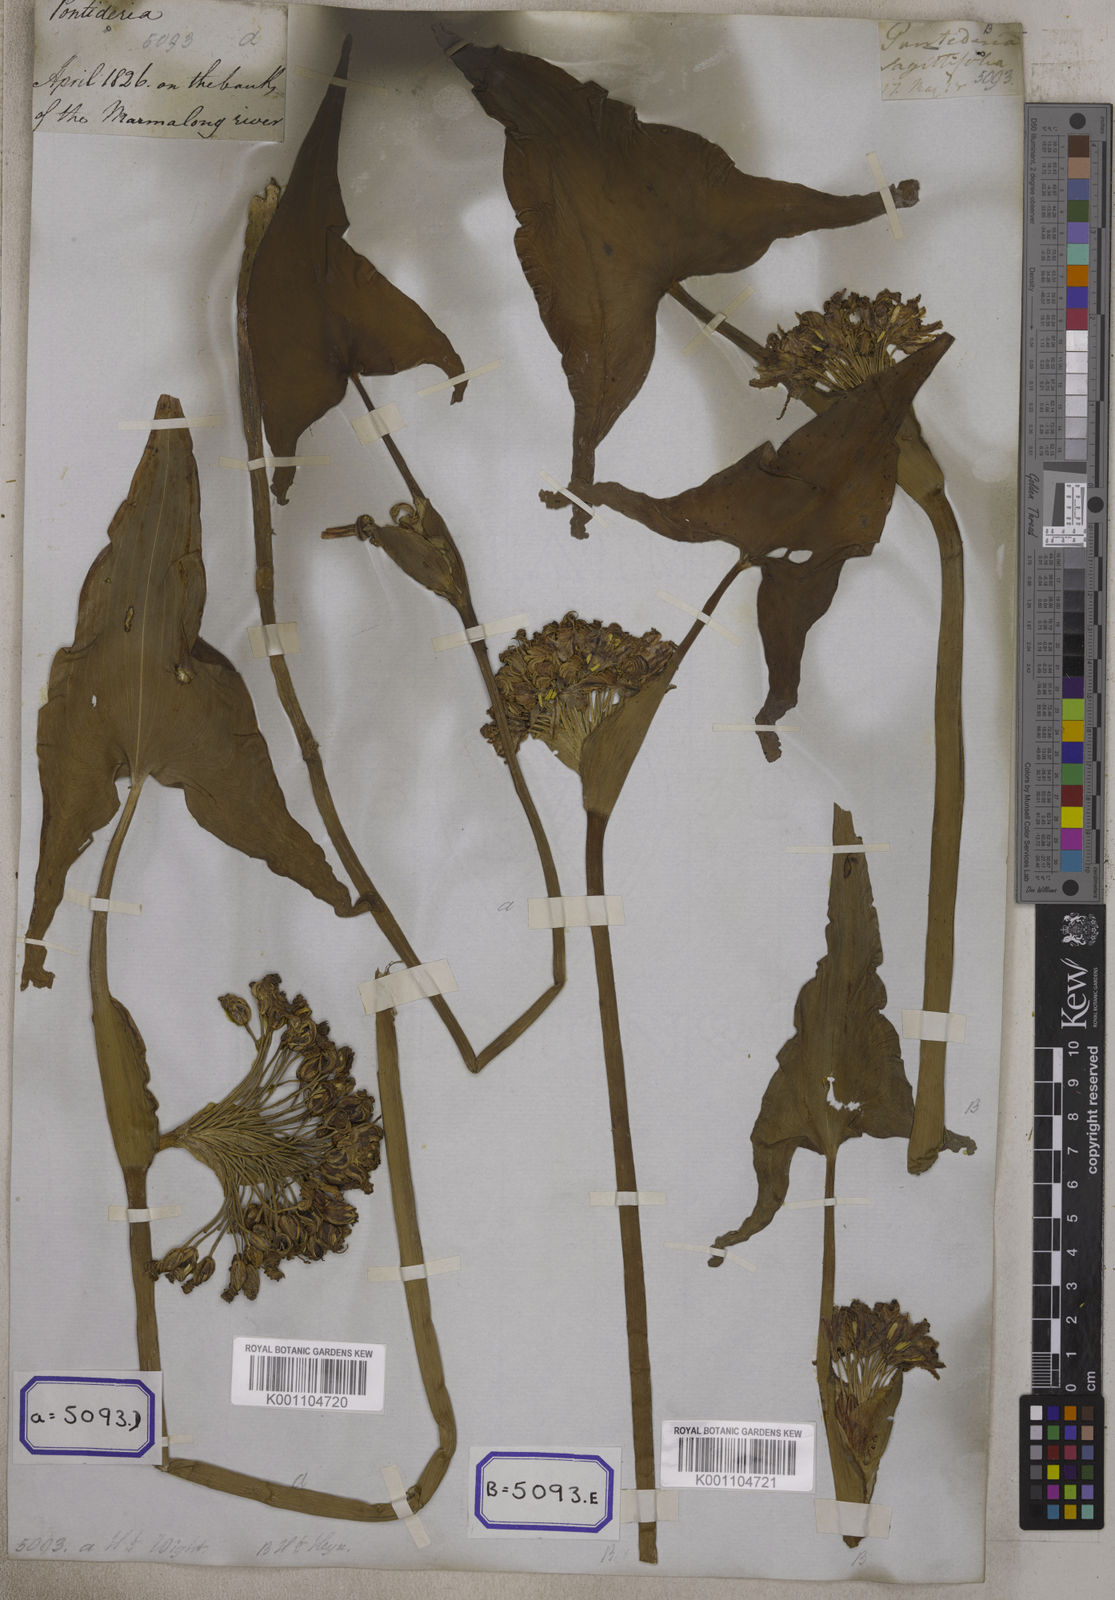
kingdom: Plantae
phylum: Tracheophyta
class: Liliopsida
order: Commelinales
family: Pontederiaceae
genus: Pontederia
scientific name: Pontederia hastata
